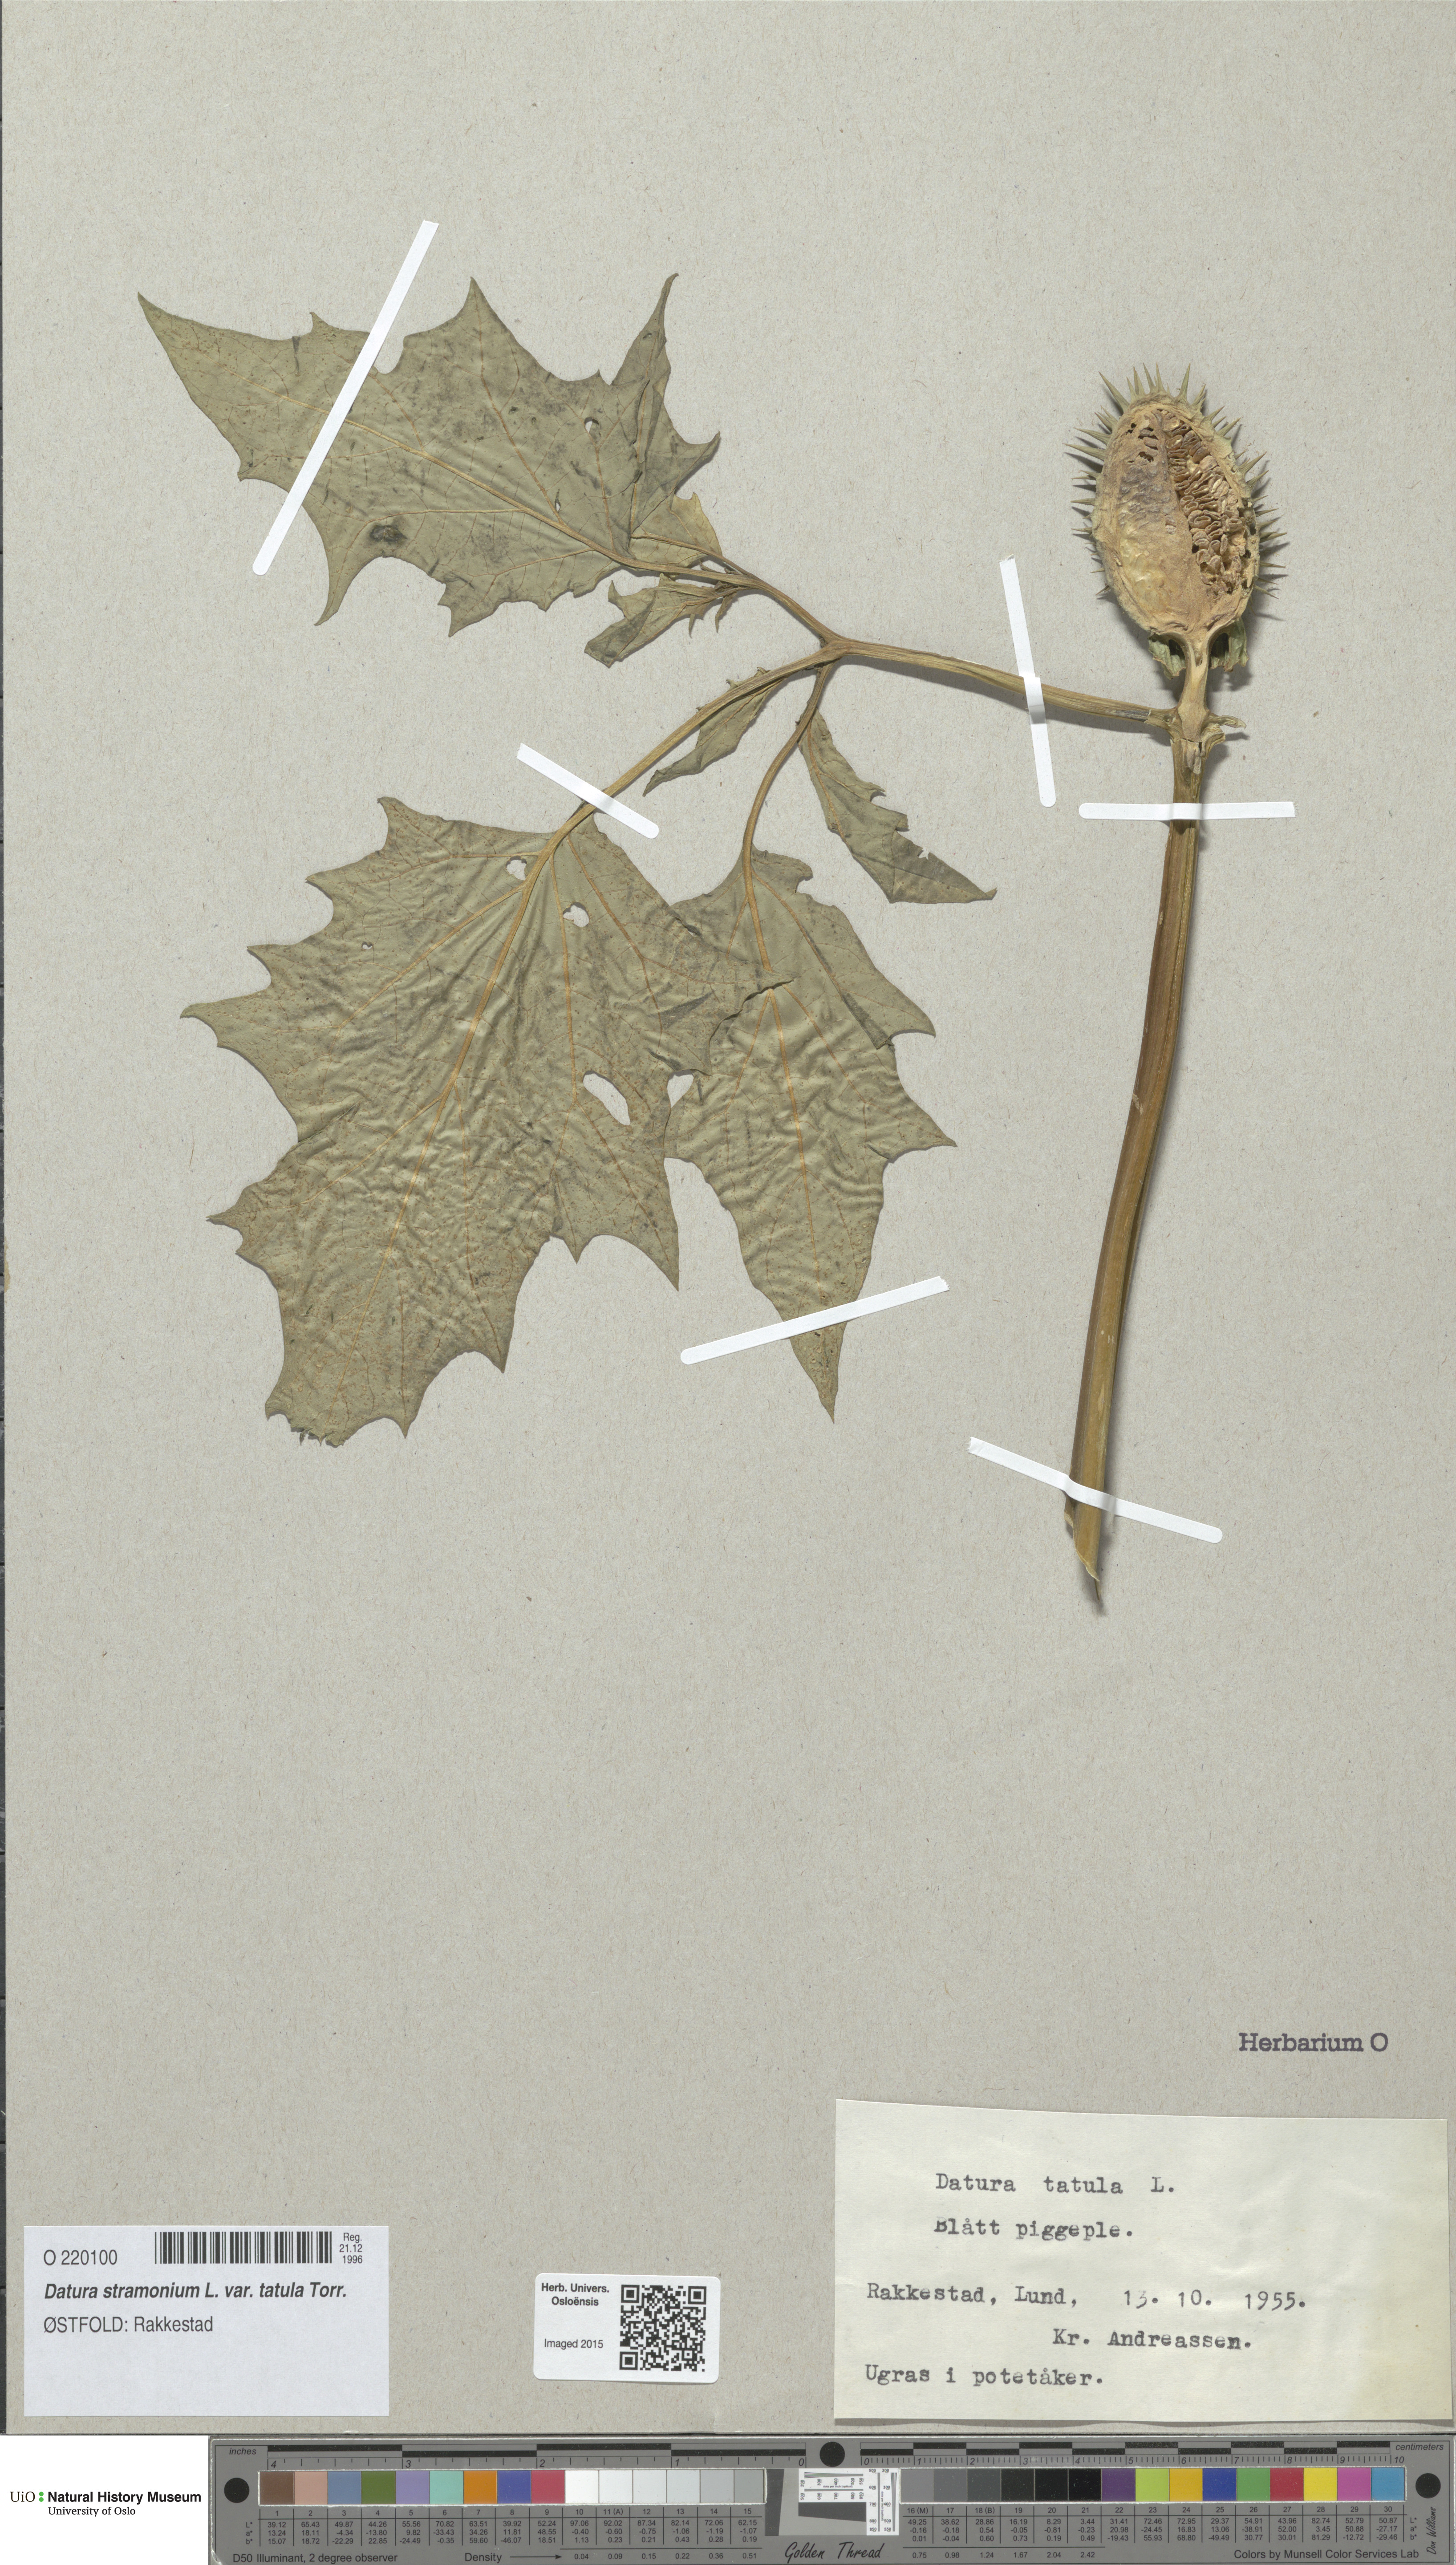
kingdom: Plantae
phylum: Tracheophyta
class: Magnoliopsida
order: Solanales
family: Solanaceae
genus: Datura
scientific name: Datura stramonium
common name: Thorn-apple
